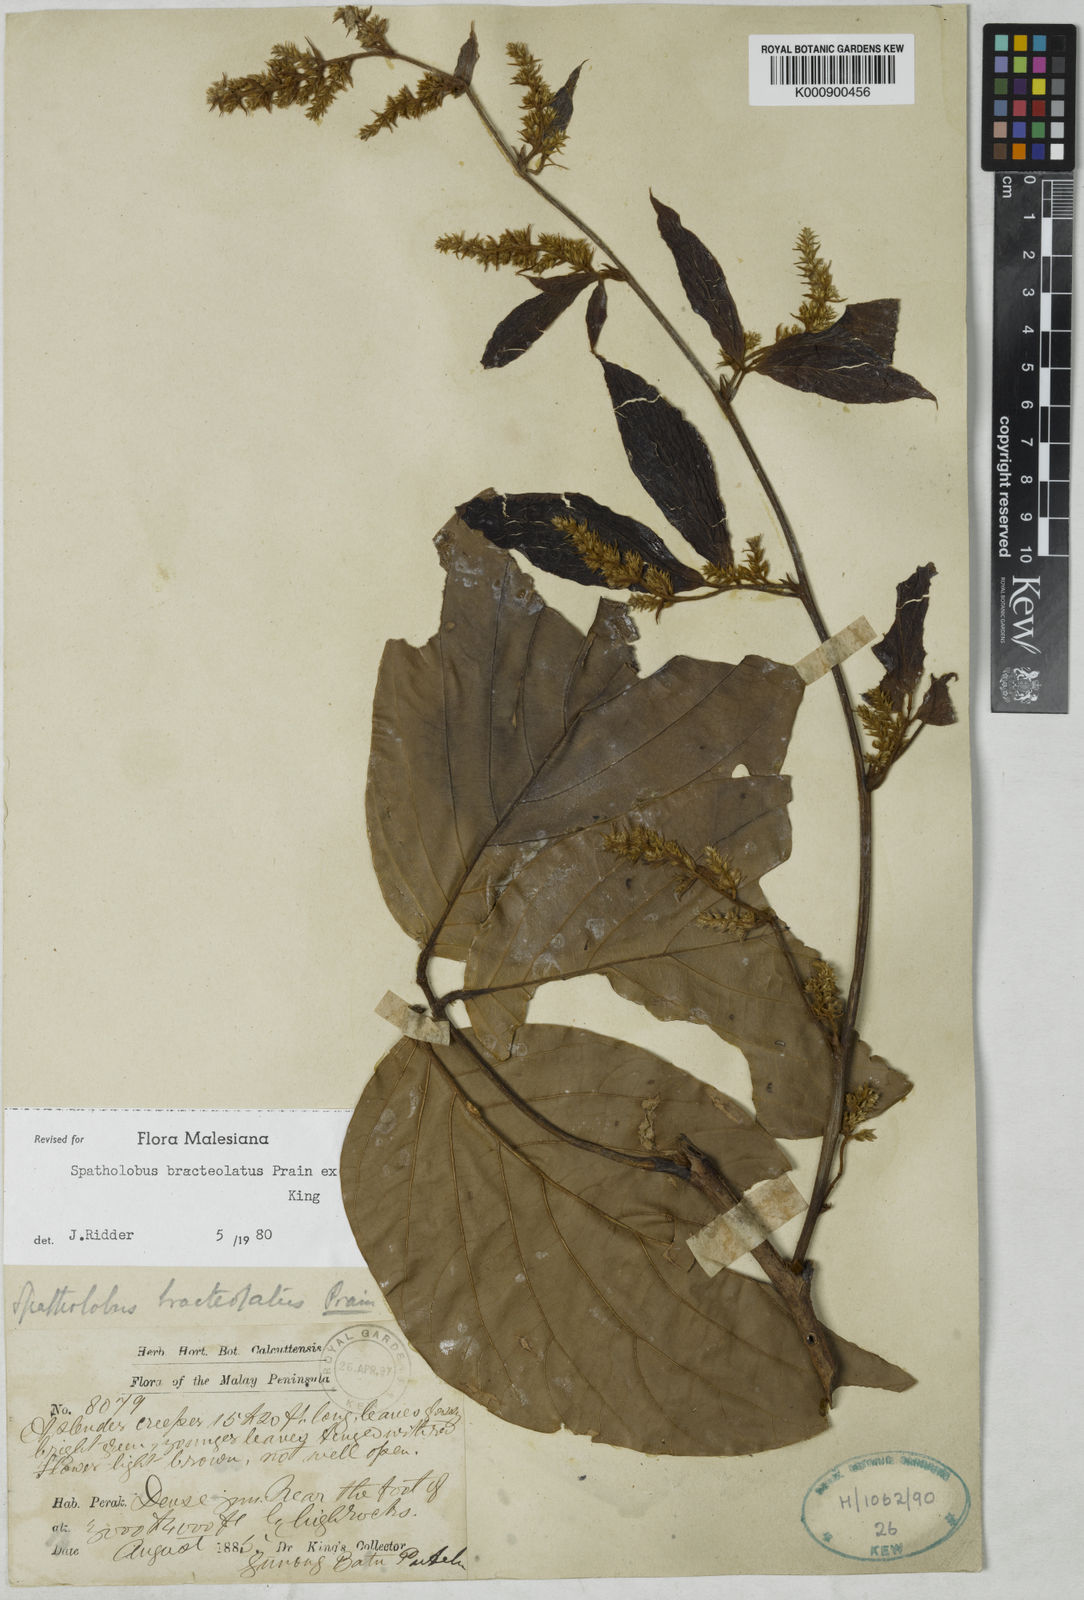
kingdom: Plantae
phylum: Tracheophyta
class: Magnoliopsida
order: Fabales
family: Fabaceae
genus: Spatholobus
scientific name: Spatholobus
